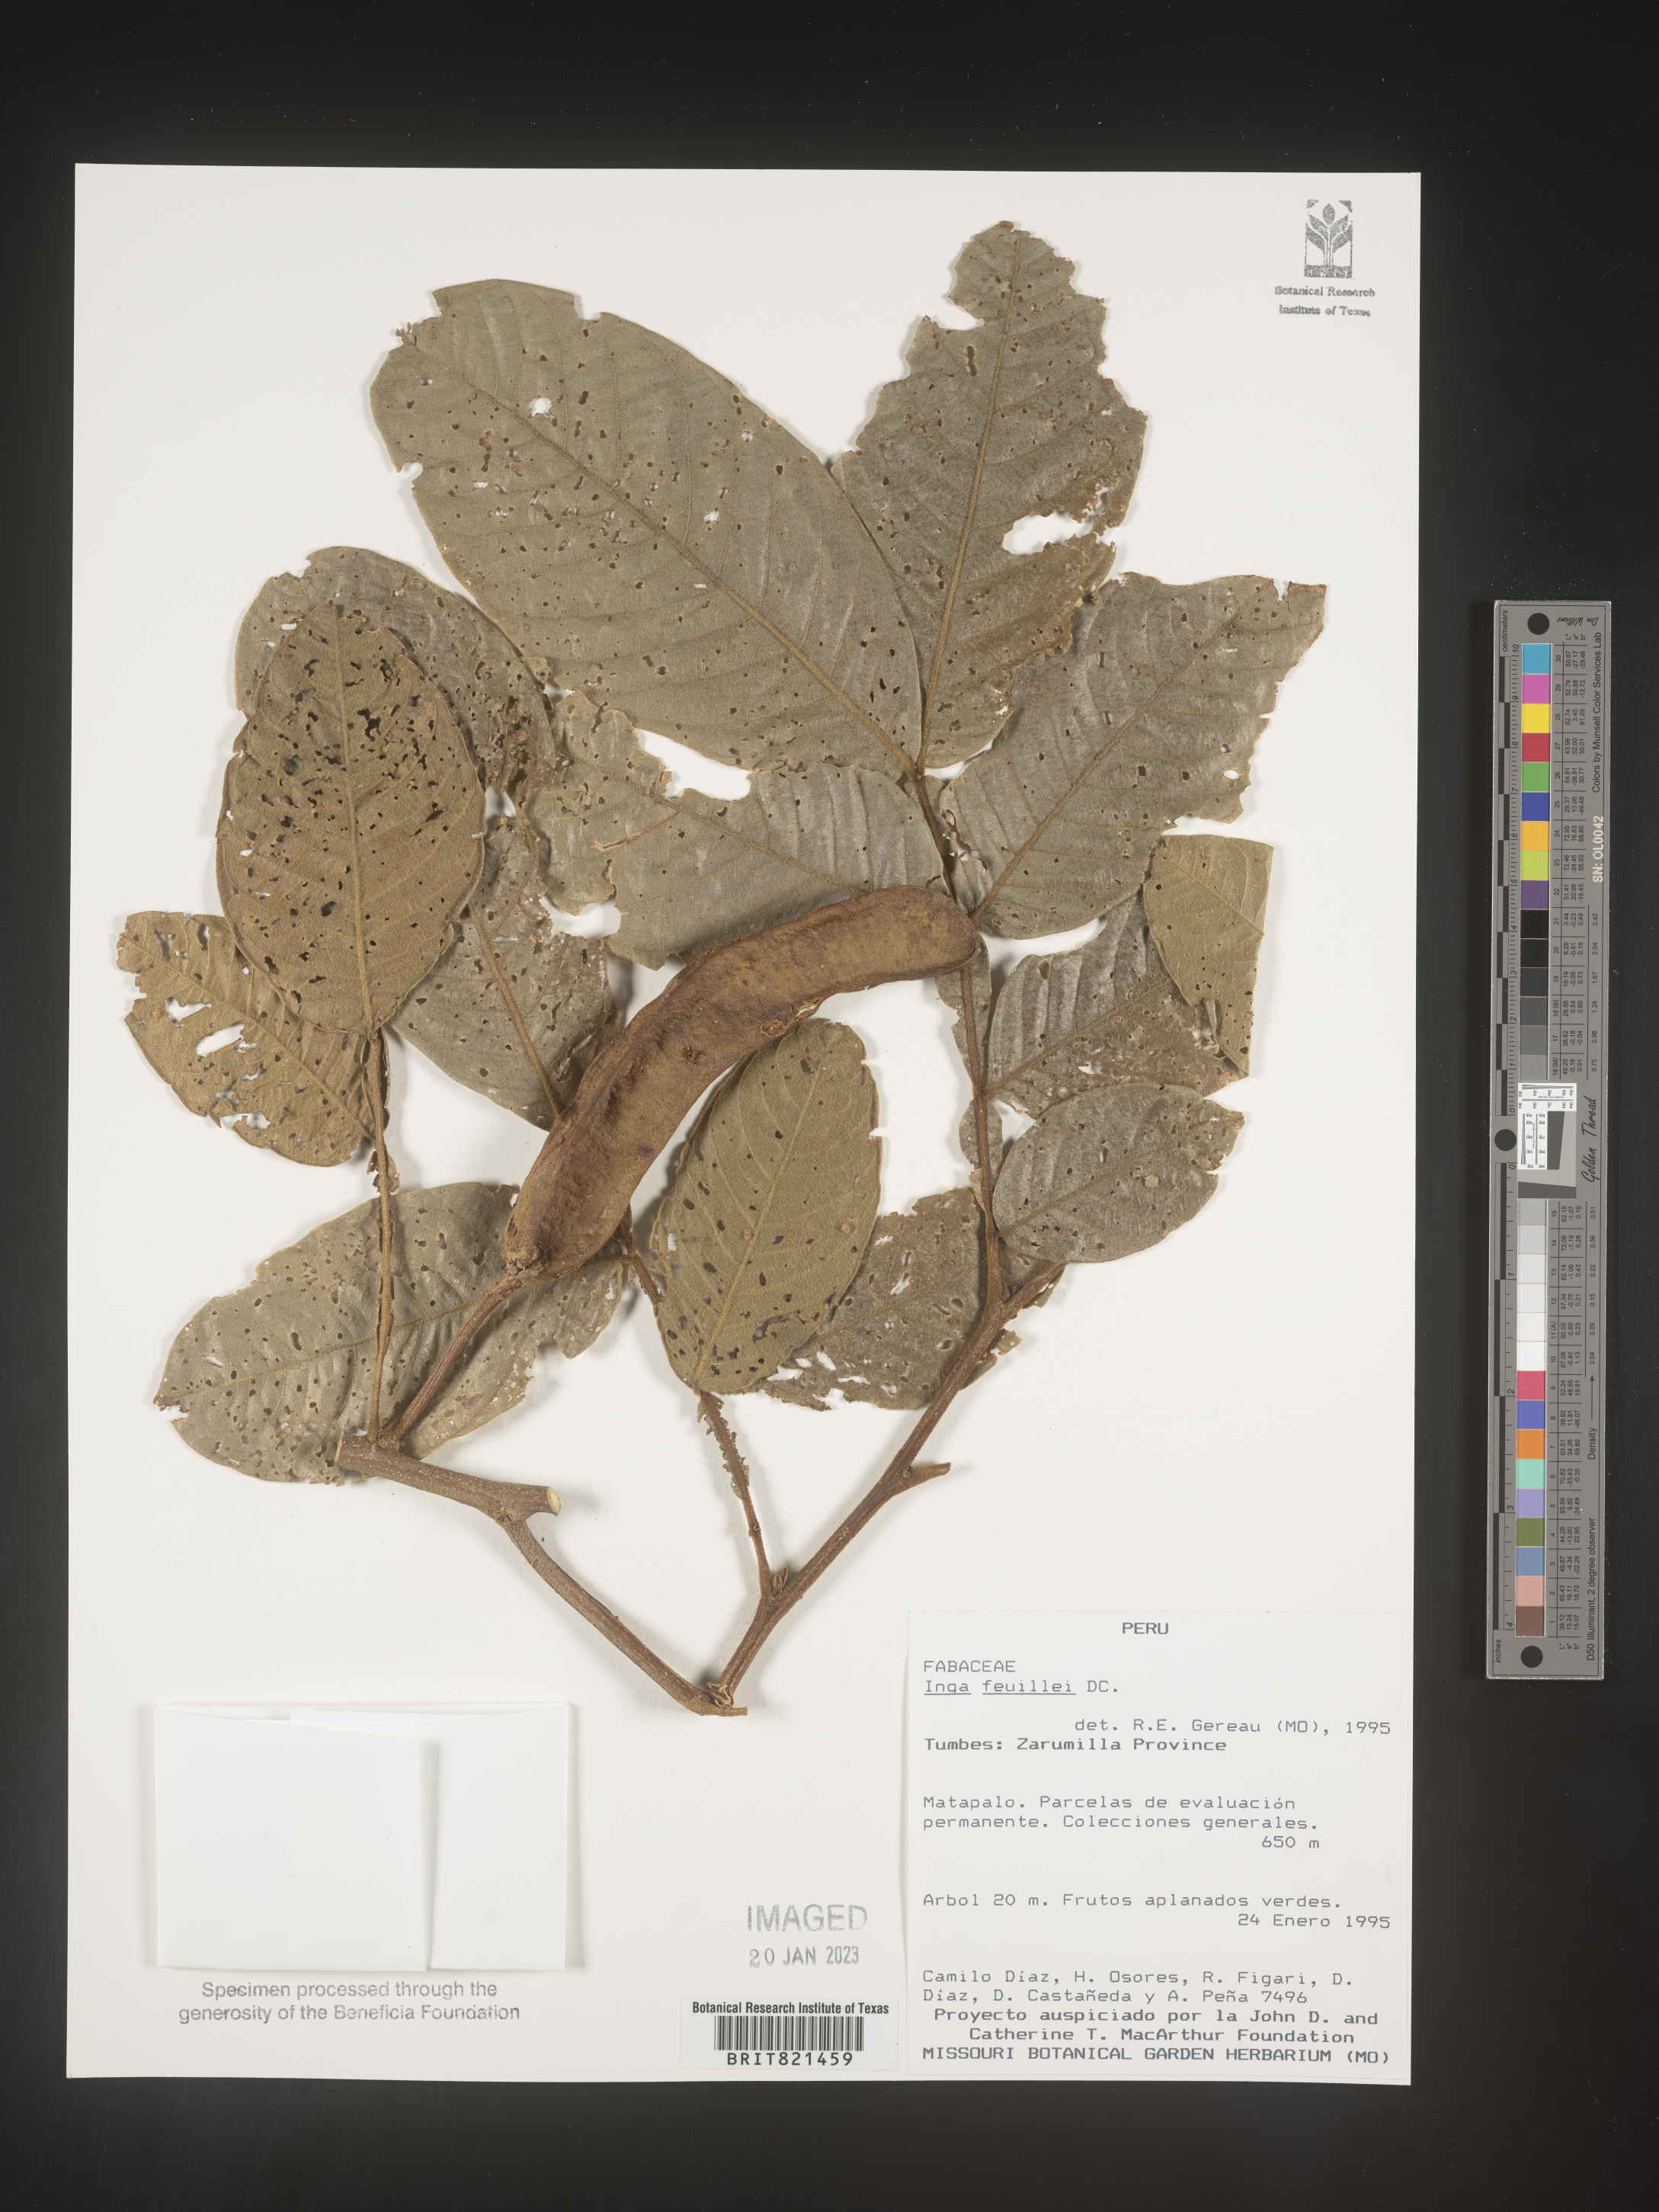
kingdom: Plantae
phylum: Tracheophyta
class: Magnoliopsida
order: Fabales
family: Fabaceae
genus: Inga
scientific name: Inga
